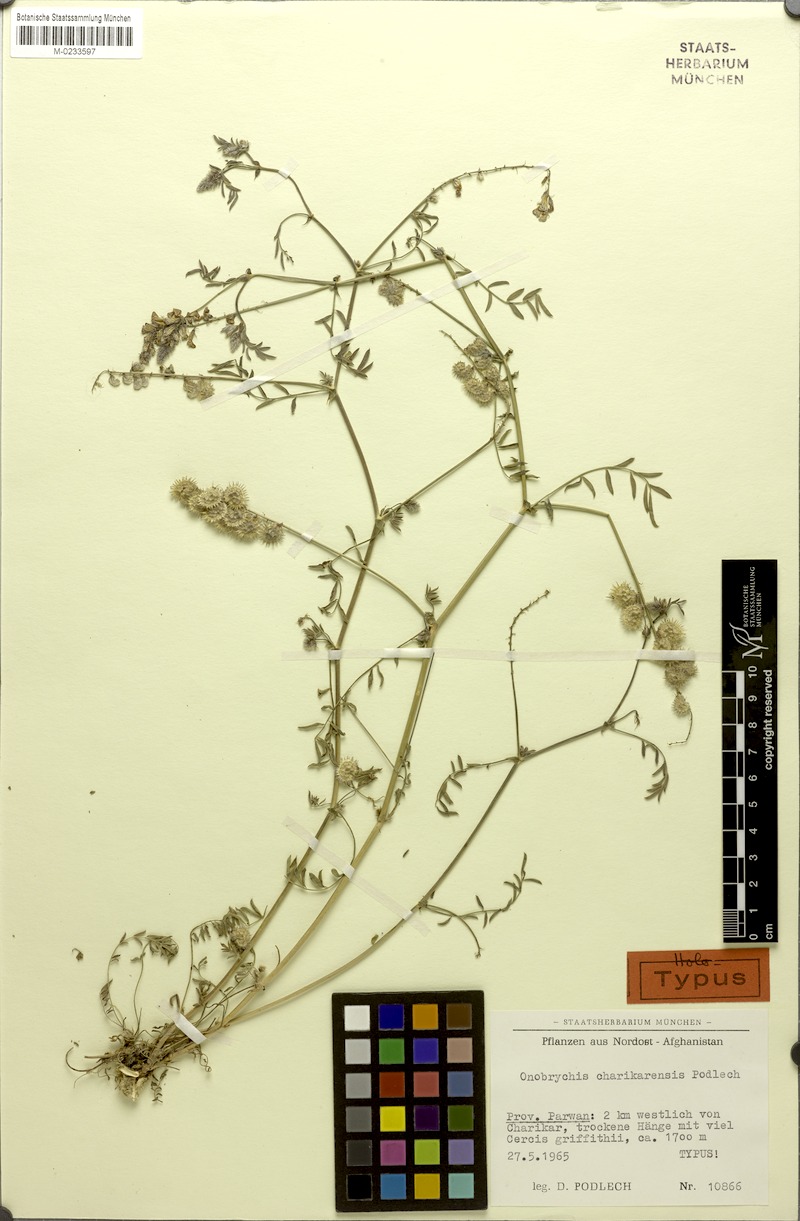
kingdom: Plantae
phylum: Tracheophyta
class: Magnoliopsida
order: Fabales
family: Fabaceae
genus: Onobrychis
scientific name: Onobrychis eubrychidea
